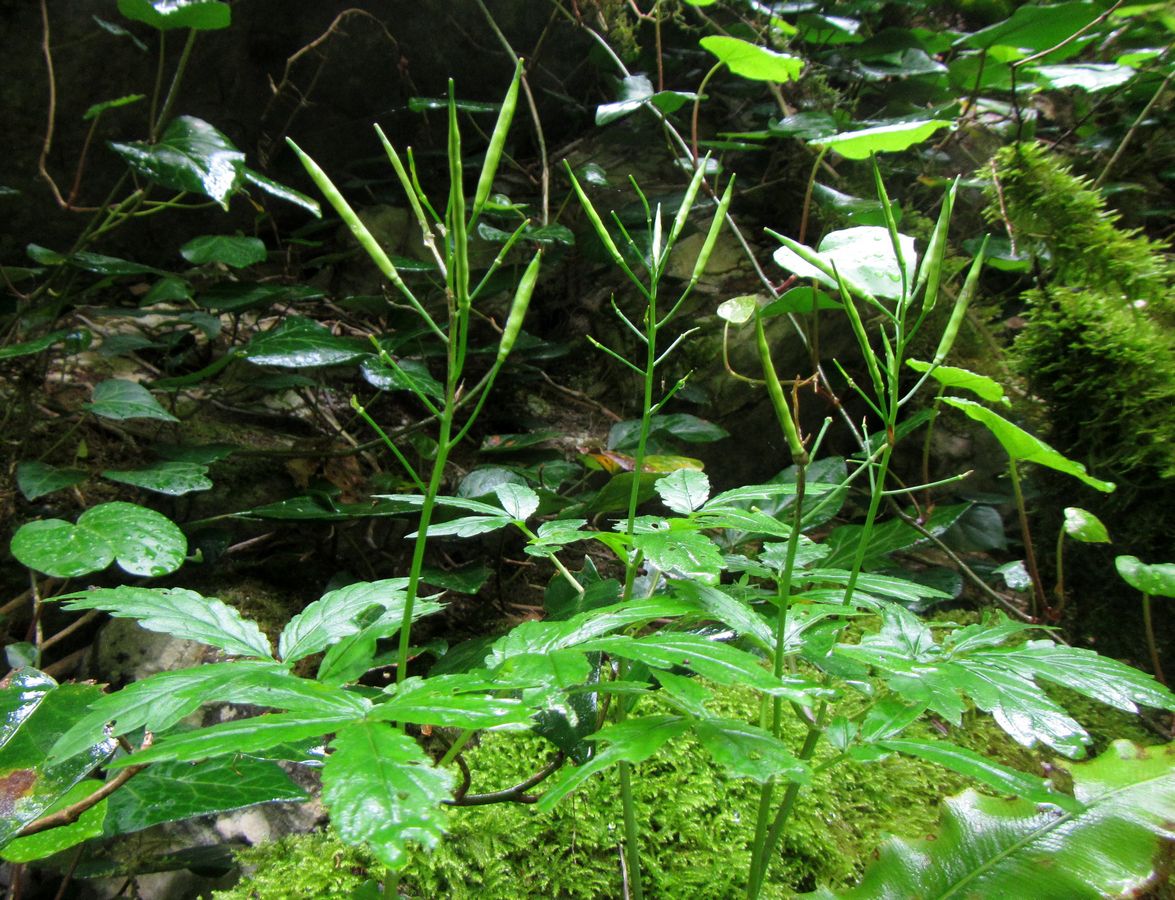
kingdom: Plantae
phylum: Tracheophyta
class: Magnoliopsida
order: Brassicales
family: Brassicaceae
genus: Cardamine
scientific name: Cardamine quinquefolia
